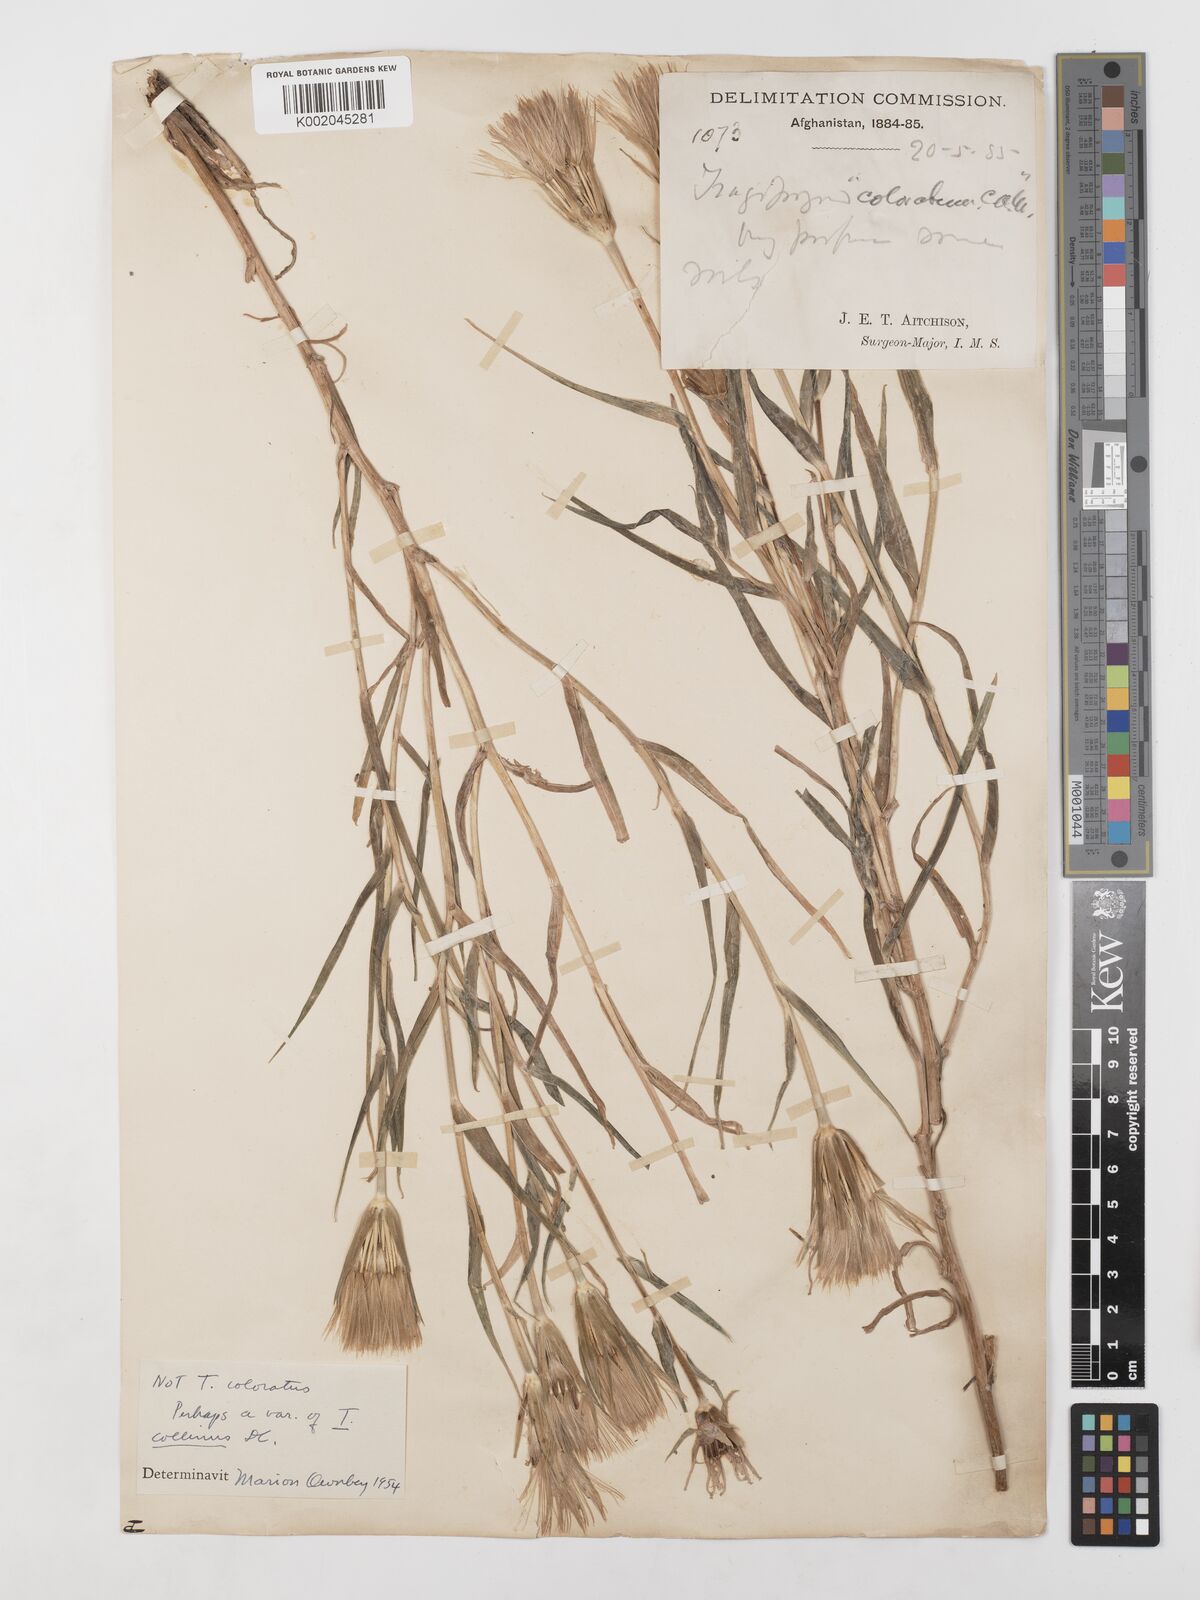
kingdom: Plantae
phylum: Tracheophyta
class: Magnoliopsida
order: Asterales
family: Asteraceae
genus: Tragopogon
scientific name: Tragopogon collinus
